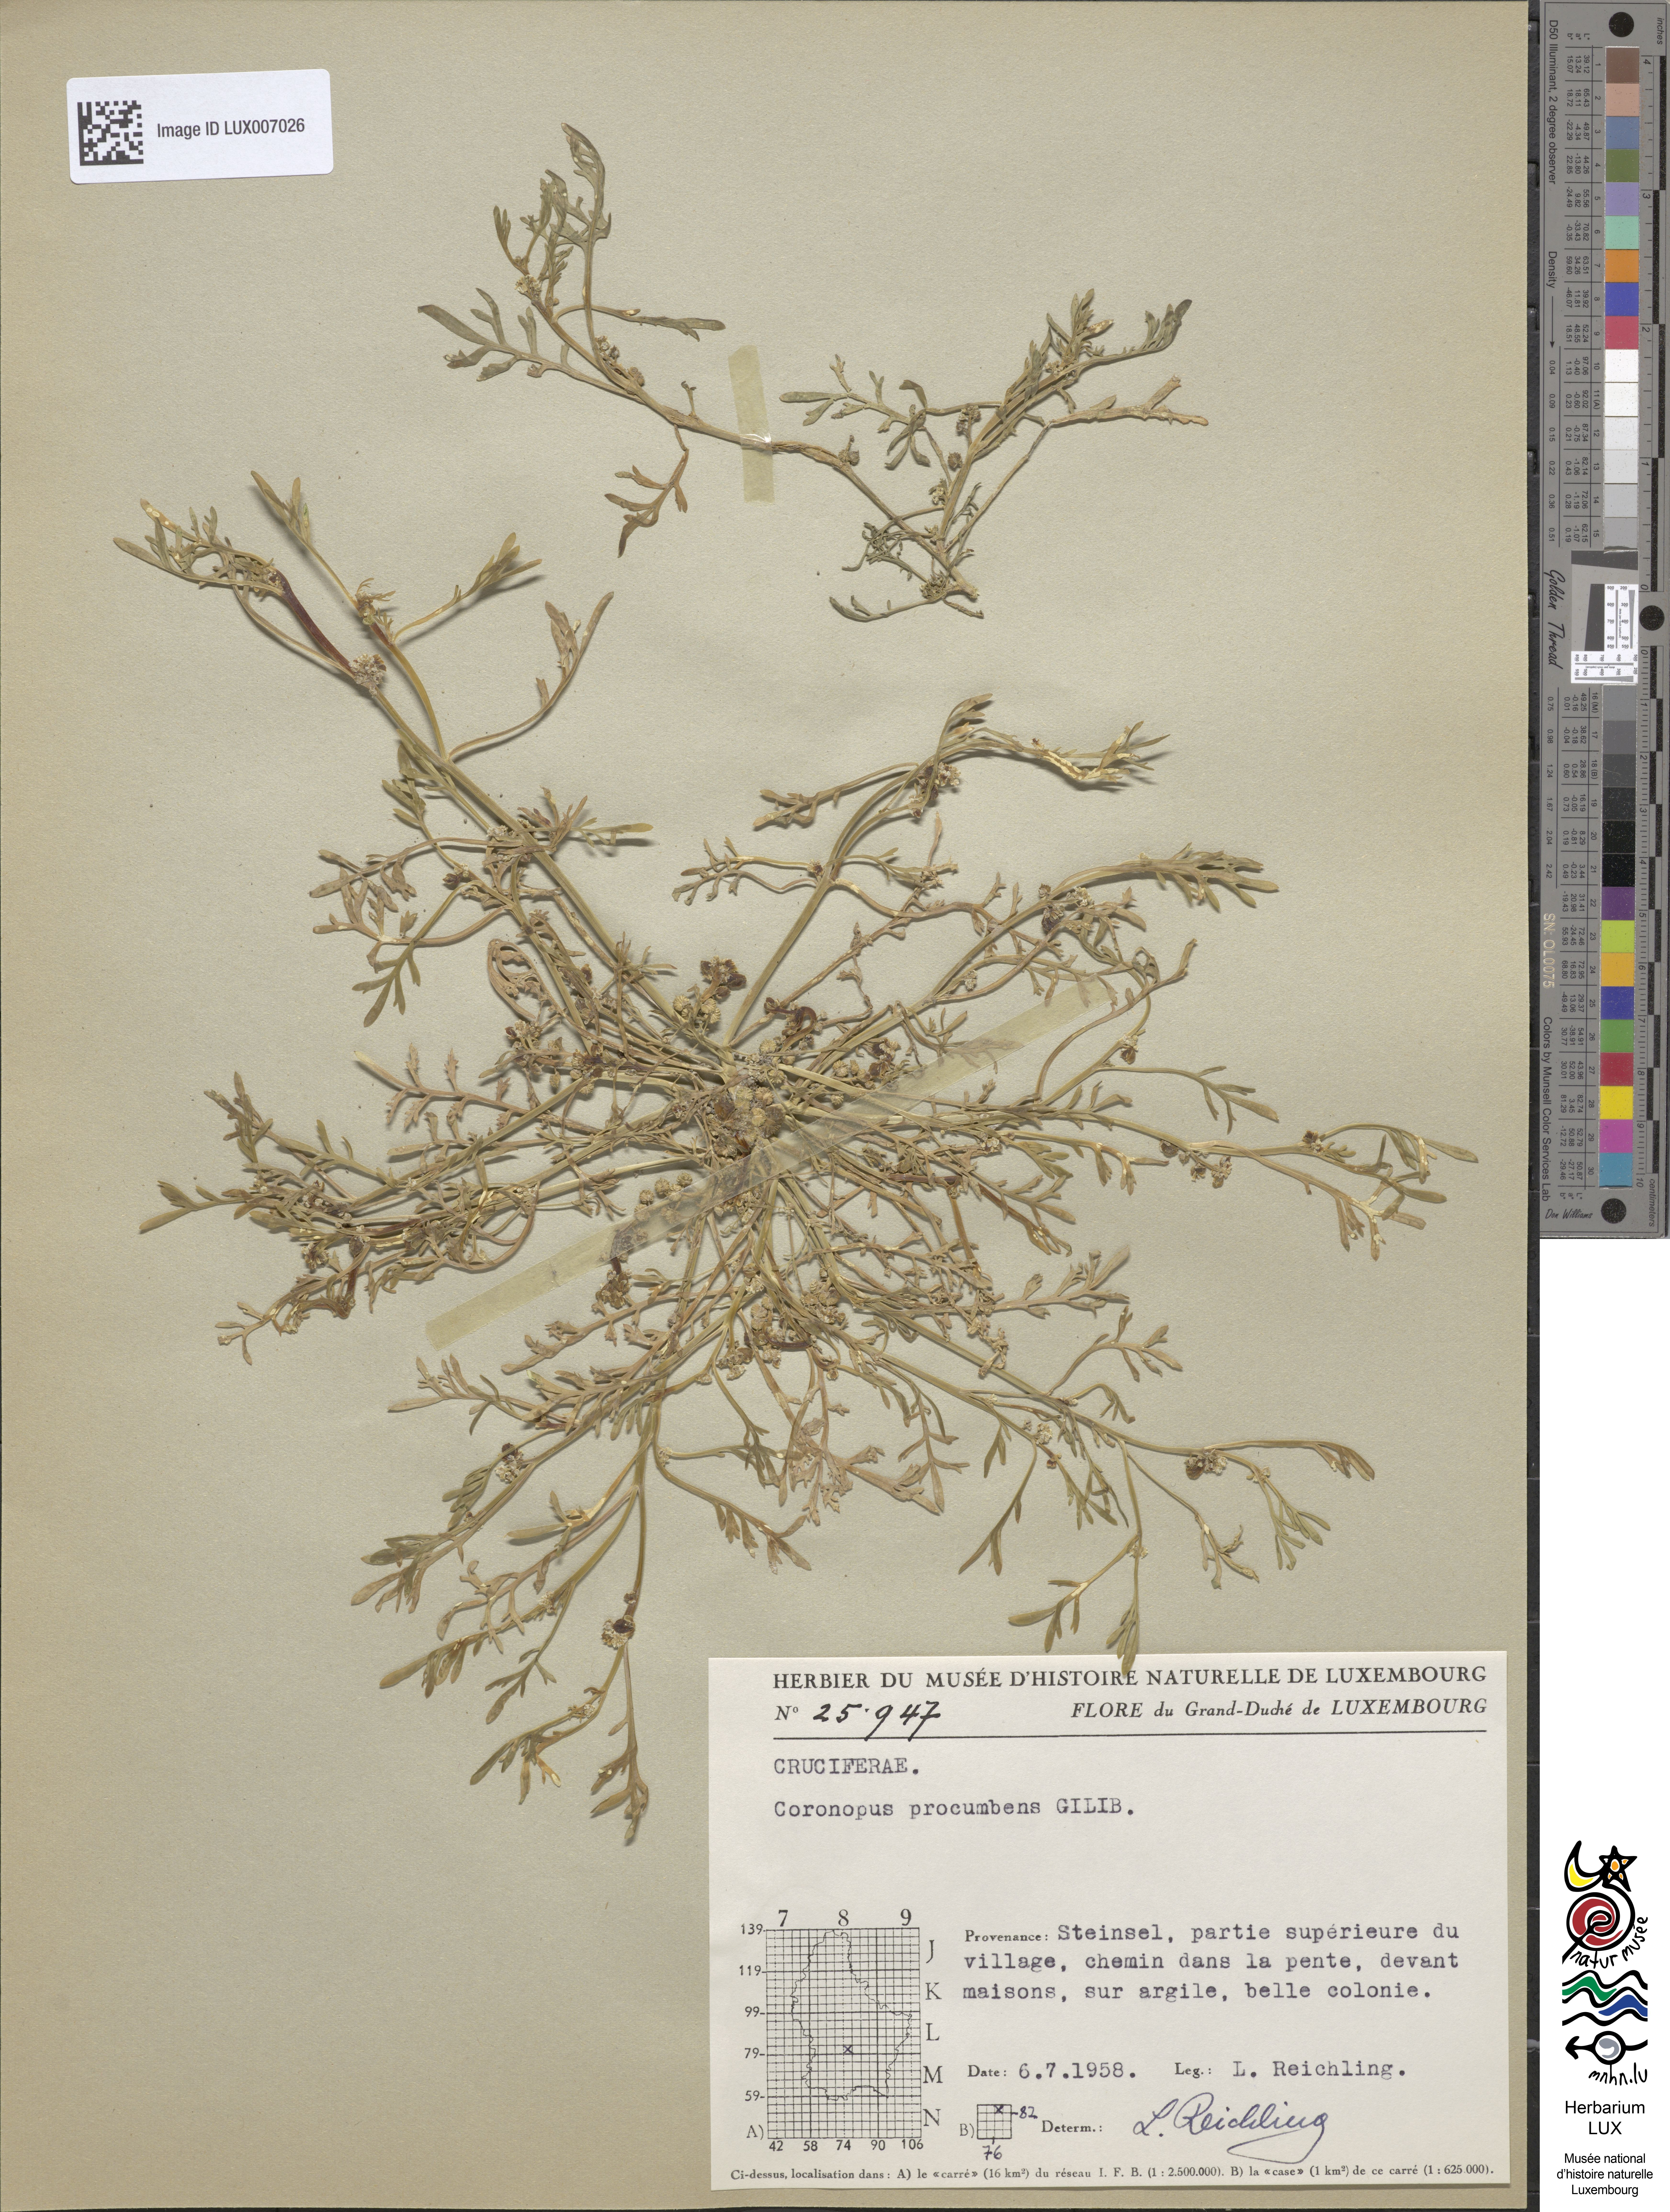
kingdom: Plantae
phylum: Tracheophyta
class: Magnoliopsida
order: Brassicales
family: Brassicaceae
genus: Lepidium
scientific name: Lepidium coronopus
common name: Greater swinecress
